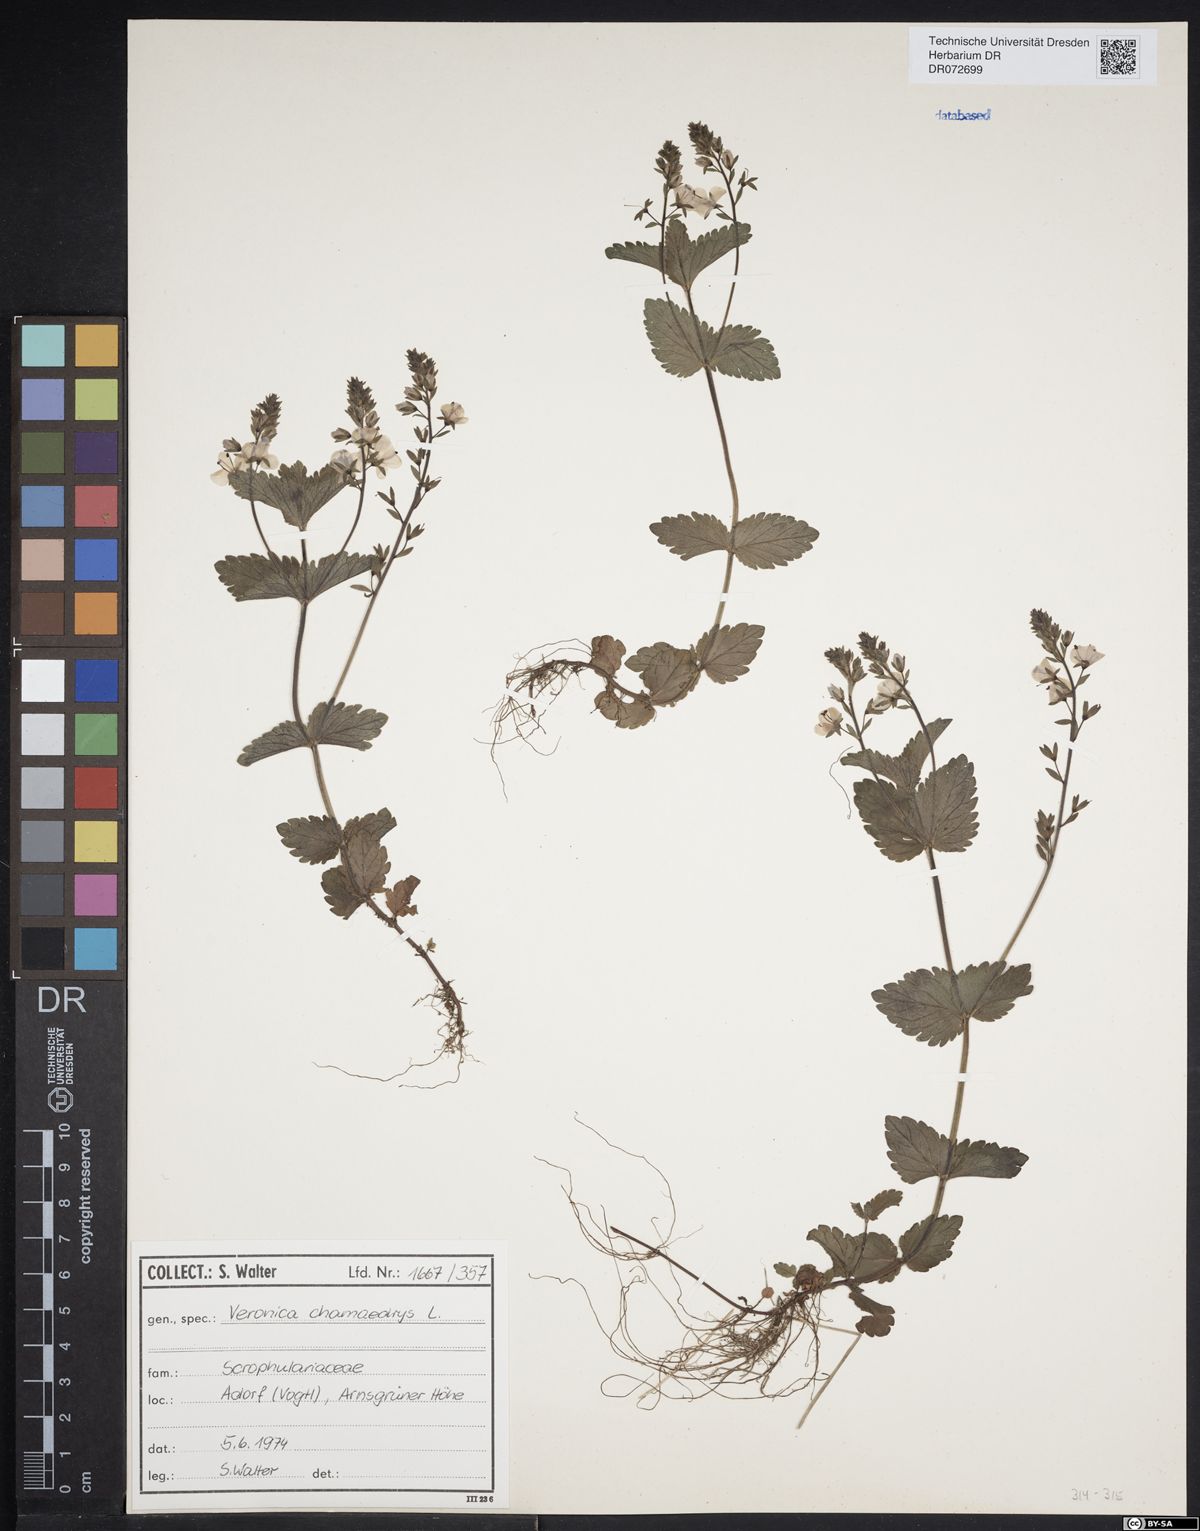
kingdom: Plantae
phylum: Tracheophyta
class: Magnoliopsida
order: Lamiales
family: Plantaginaceae
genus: Veronica
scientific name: Veronica chamaedrys
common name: Germander speedwell
